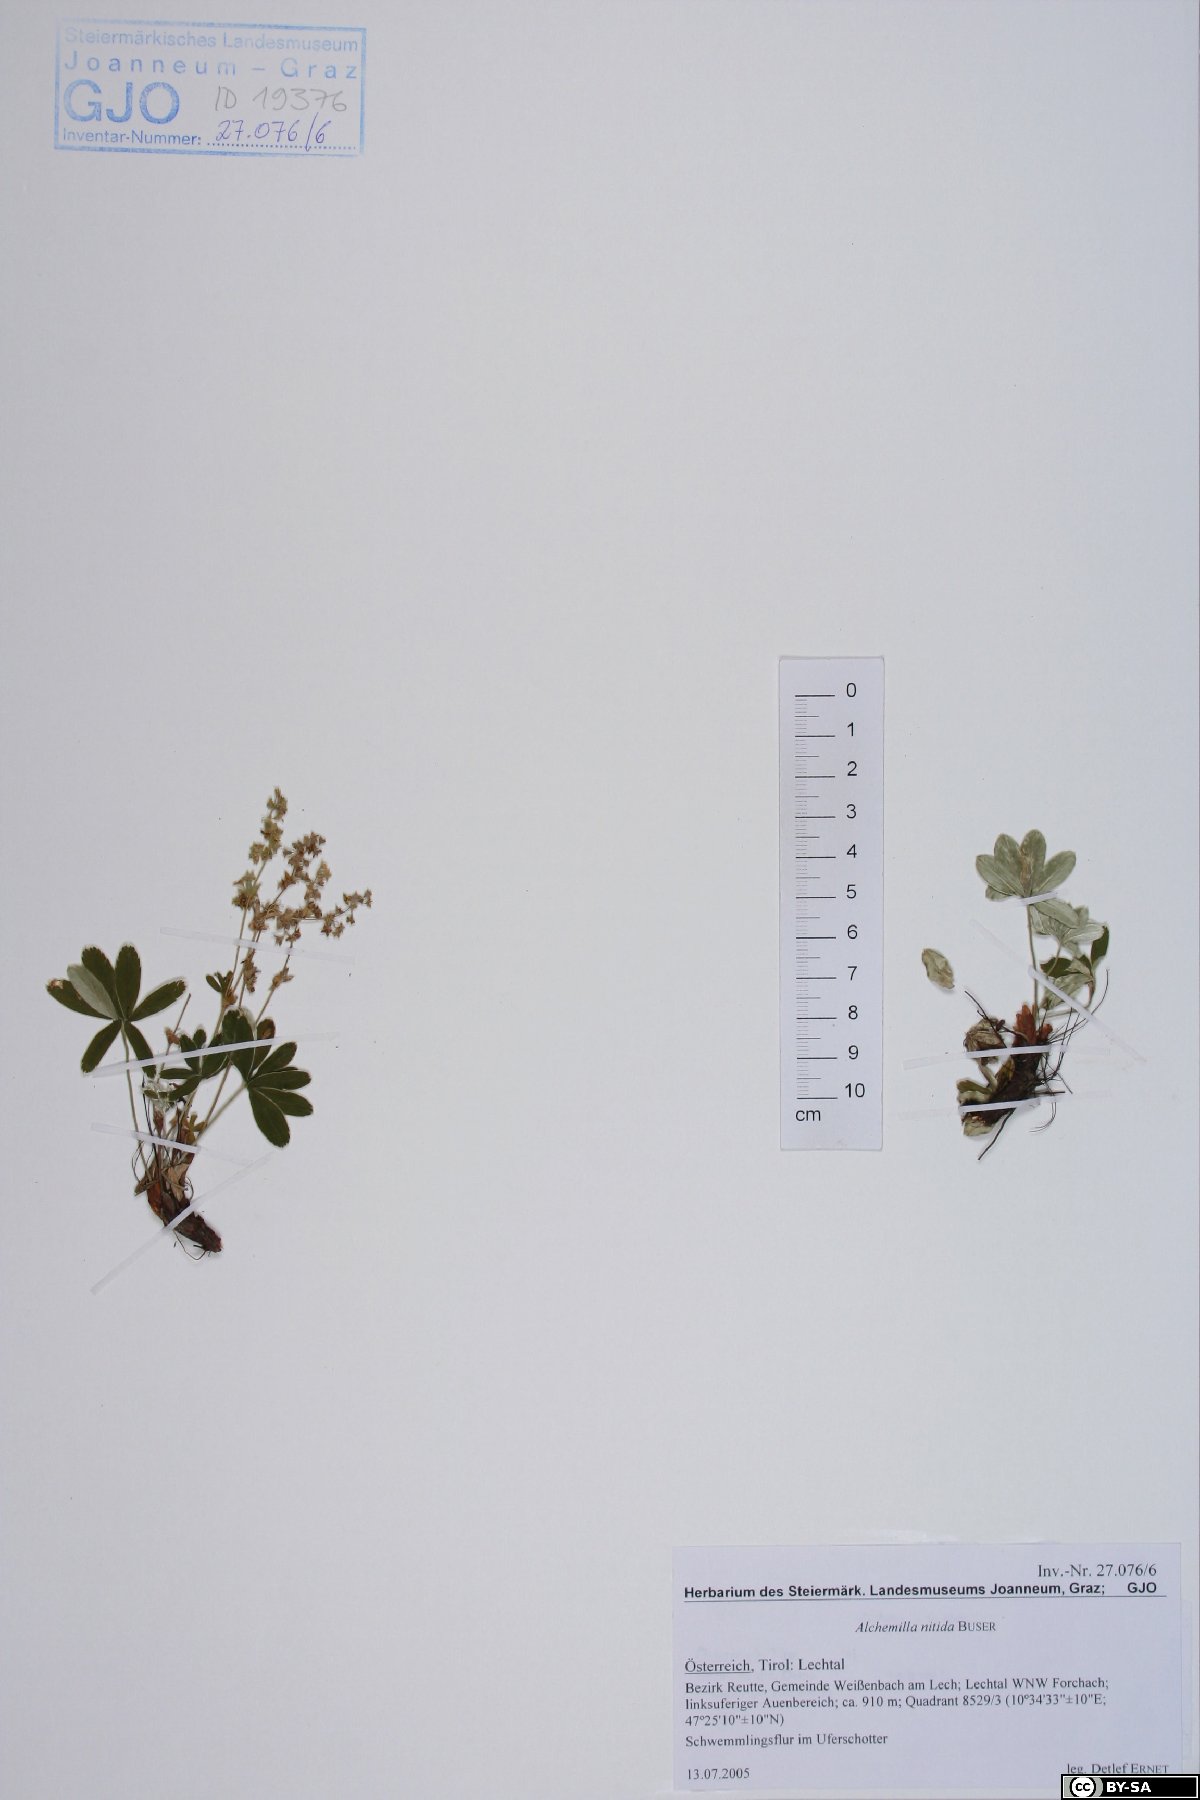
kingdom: Plantae
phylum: Tracheophyta
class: Magnoliopsida
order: Rosales
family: Rosaceae
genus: Alchemilla
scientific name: Alchemilla nitida
